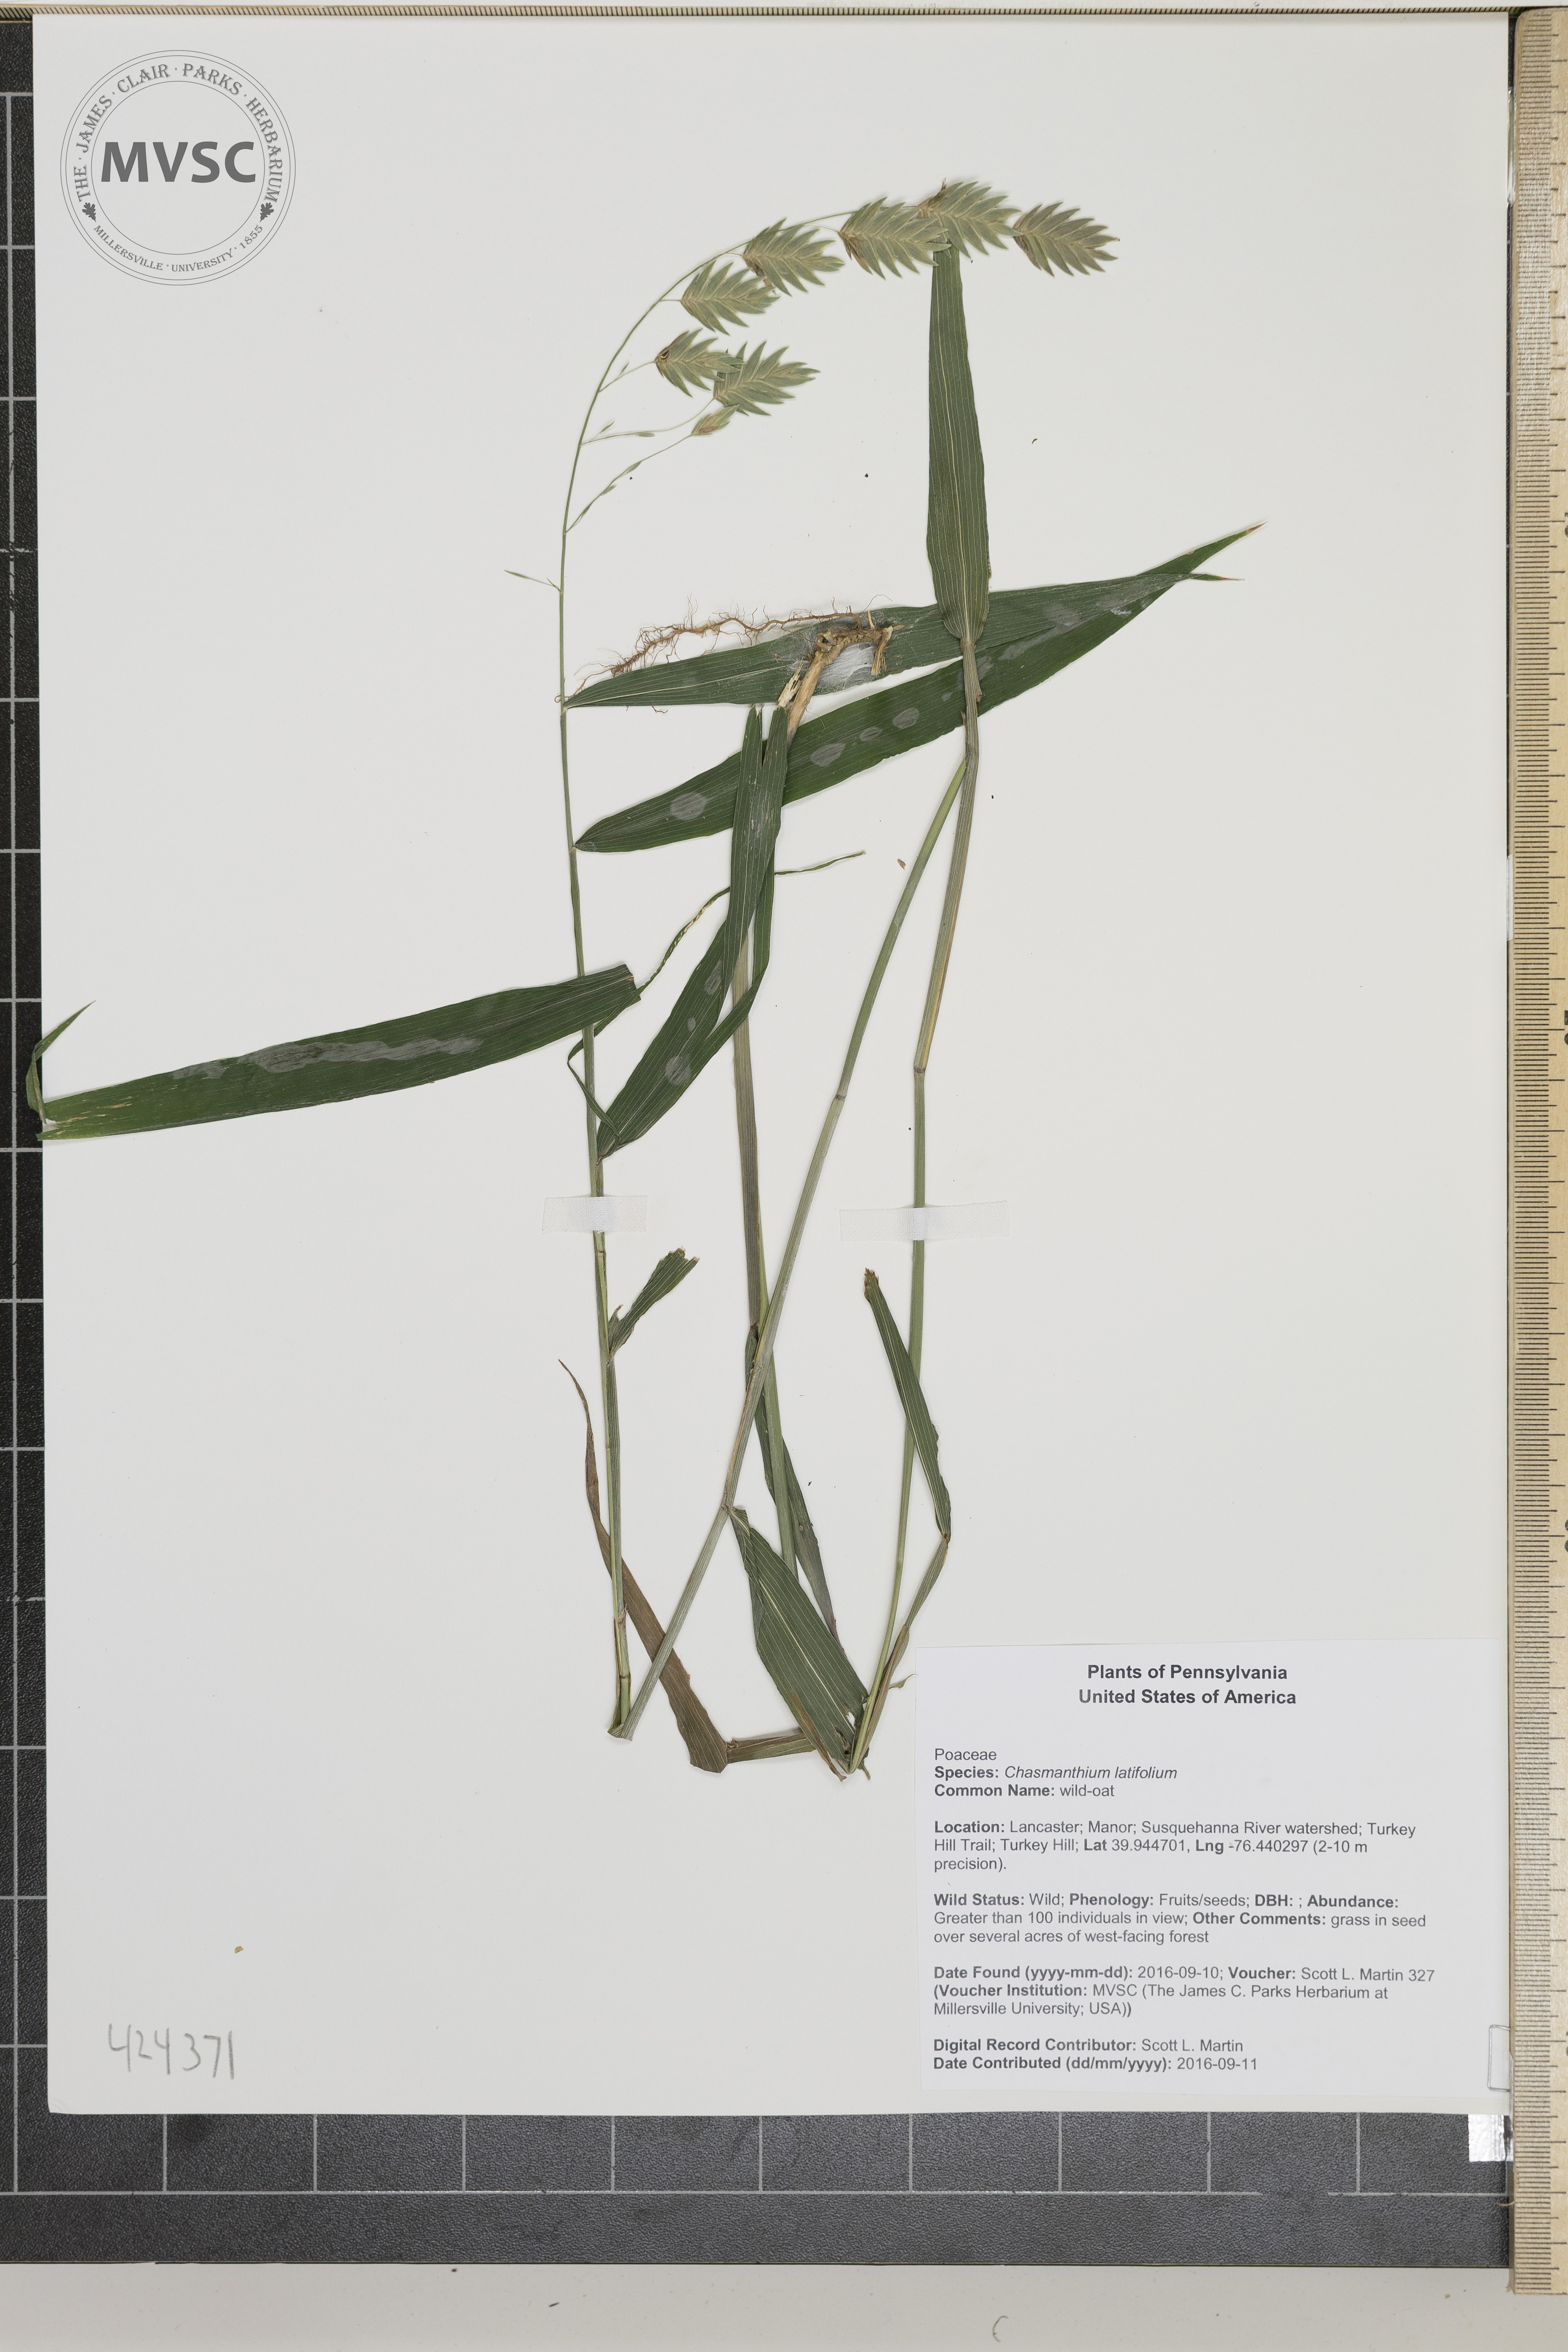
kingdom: Plantae
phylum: Tracheophyta
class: Liliopsida
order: Poales
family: Poaceae
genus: Chasmanthium
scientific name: Chasmanthium latifolium
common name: wild-oat
